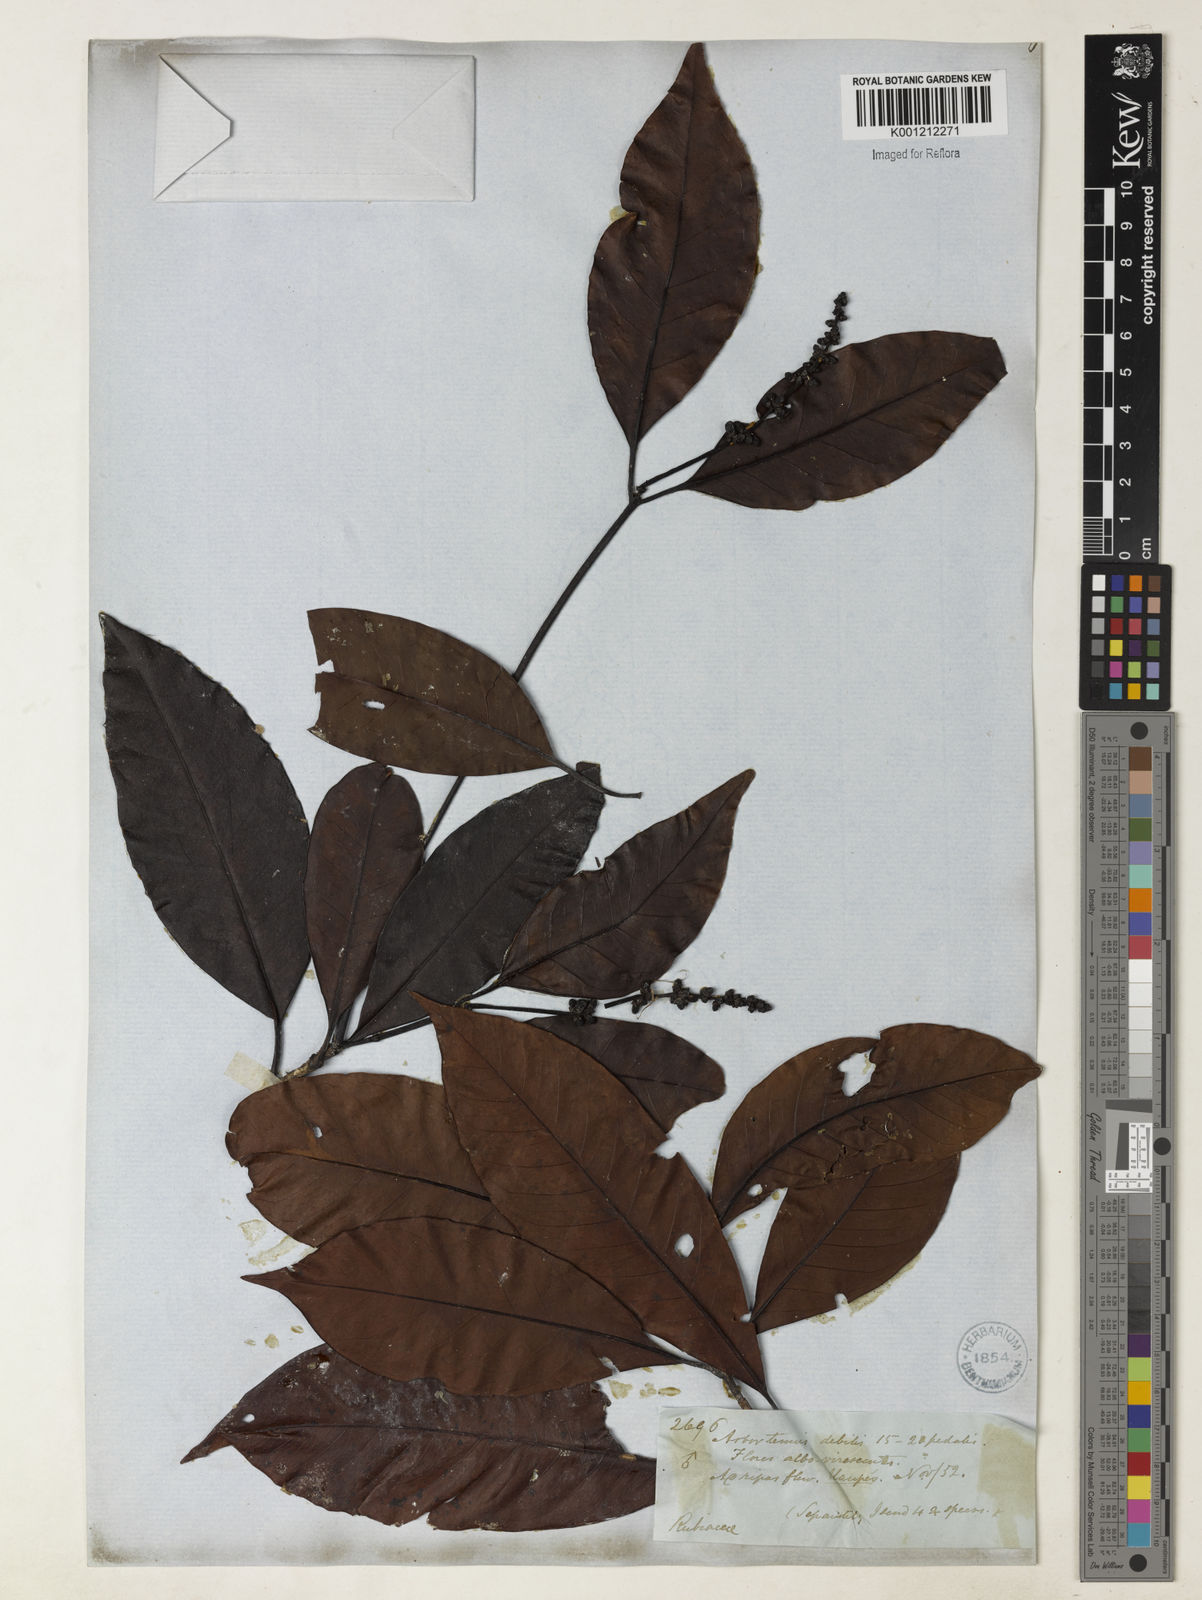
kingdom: Plantae
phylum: Tracheophyta
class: Magnoliopsida
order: Gentianales
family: Rubiaceae
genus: Stachyarrhena
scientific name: Stachyarrhena spicata
